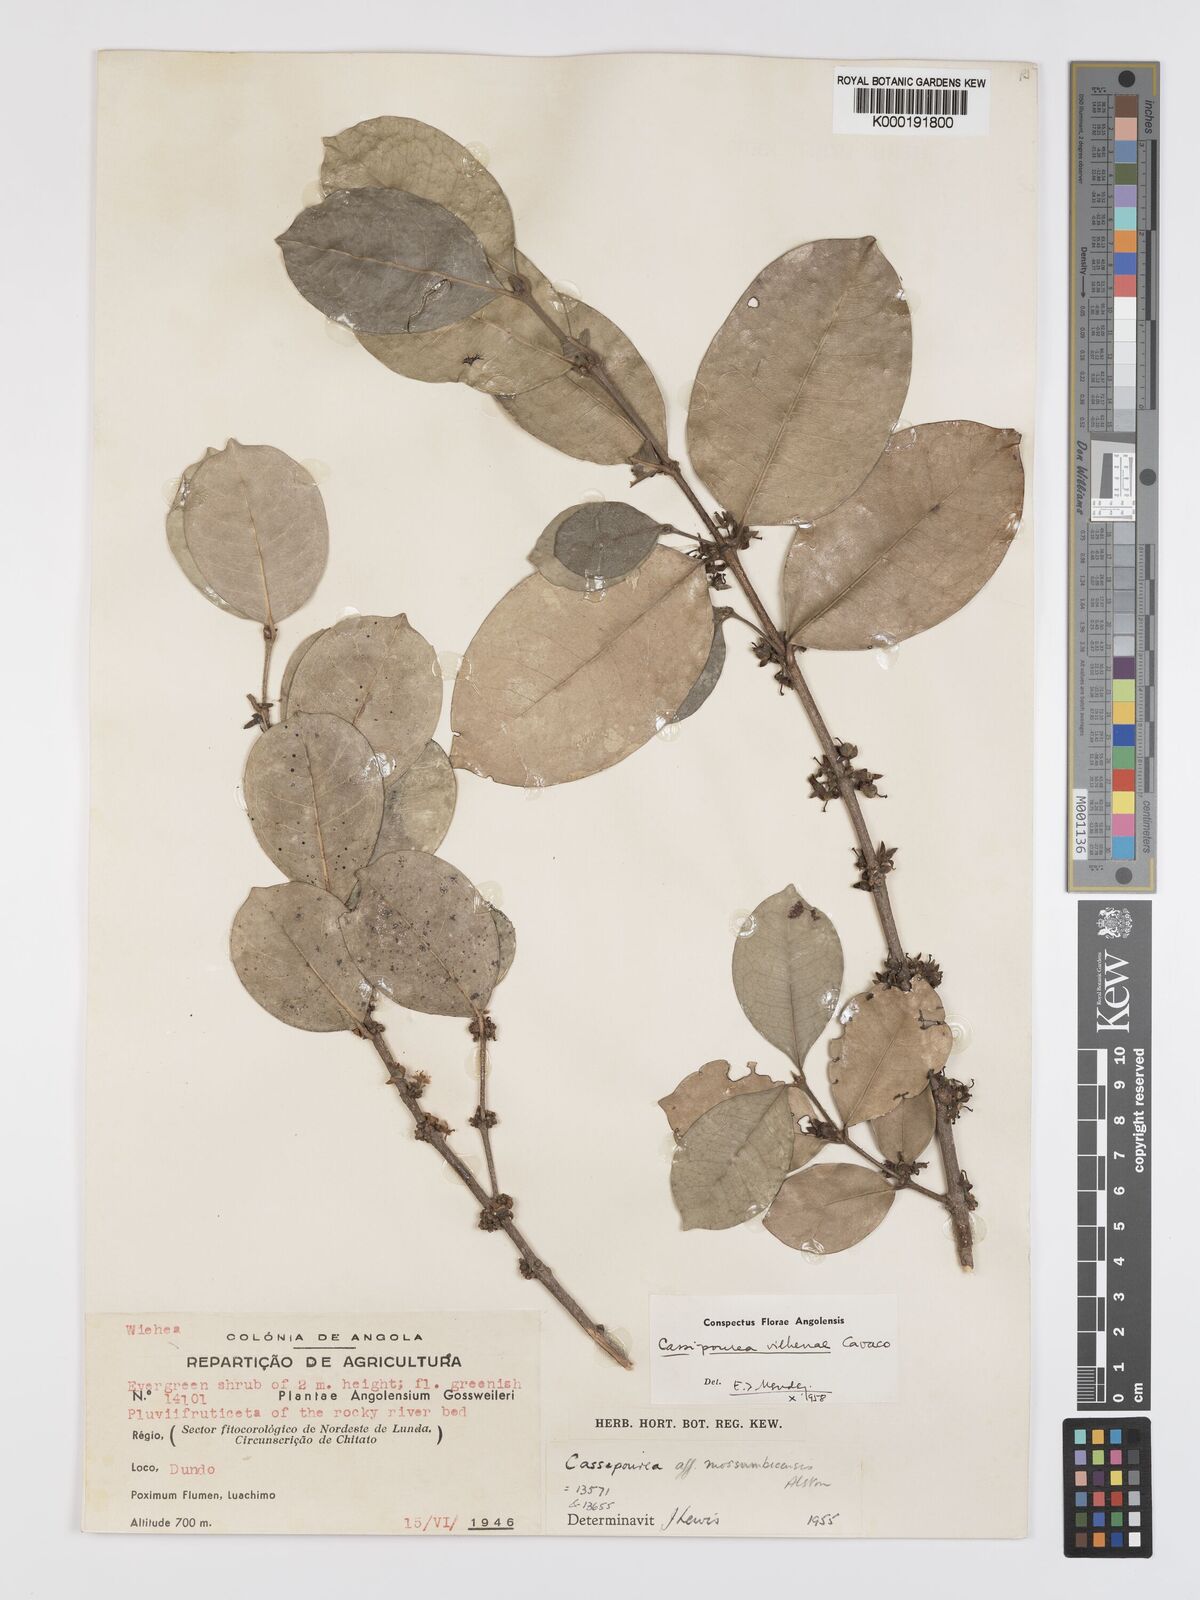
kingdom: Plantae
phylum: Tracheophyta
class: Magnoliopsida
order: Malpighiales
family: Rhizophoraceae
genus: Cassipourea
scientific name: Cassipourea vilhenae
